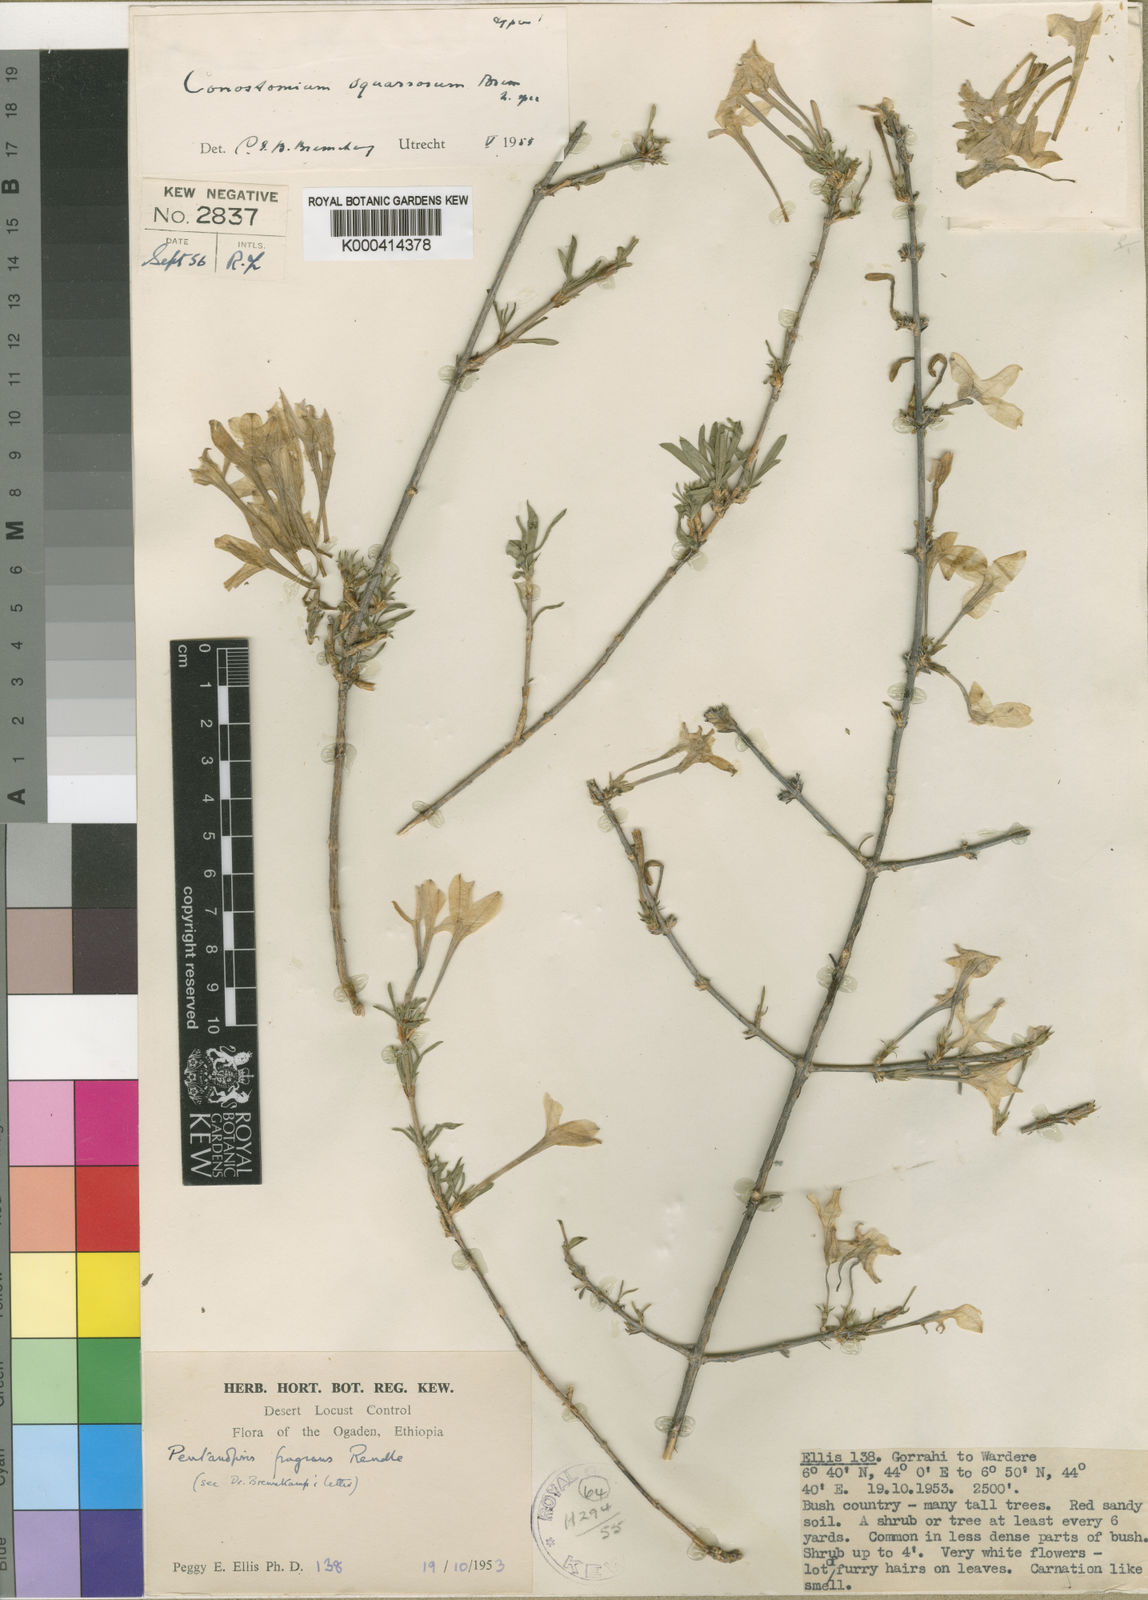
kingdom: Plantae
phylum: Tracheophyta
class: Magnoliopsida
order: Gentianales
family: Rubiaceae
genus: Pentanopsis
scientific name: Pentanopsis fragrans
